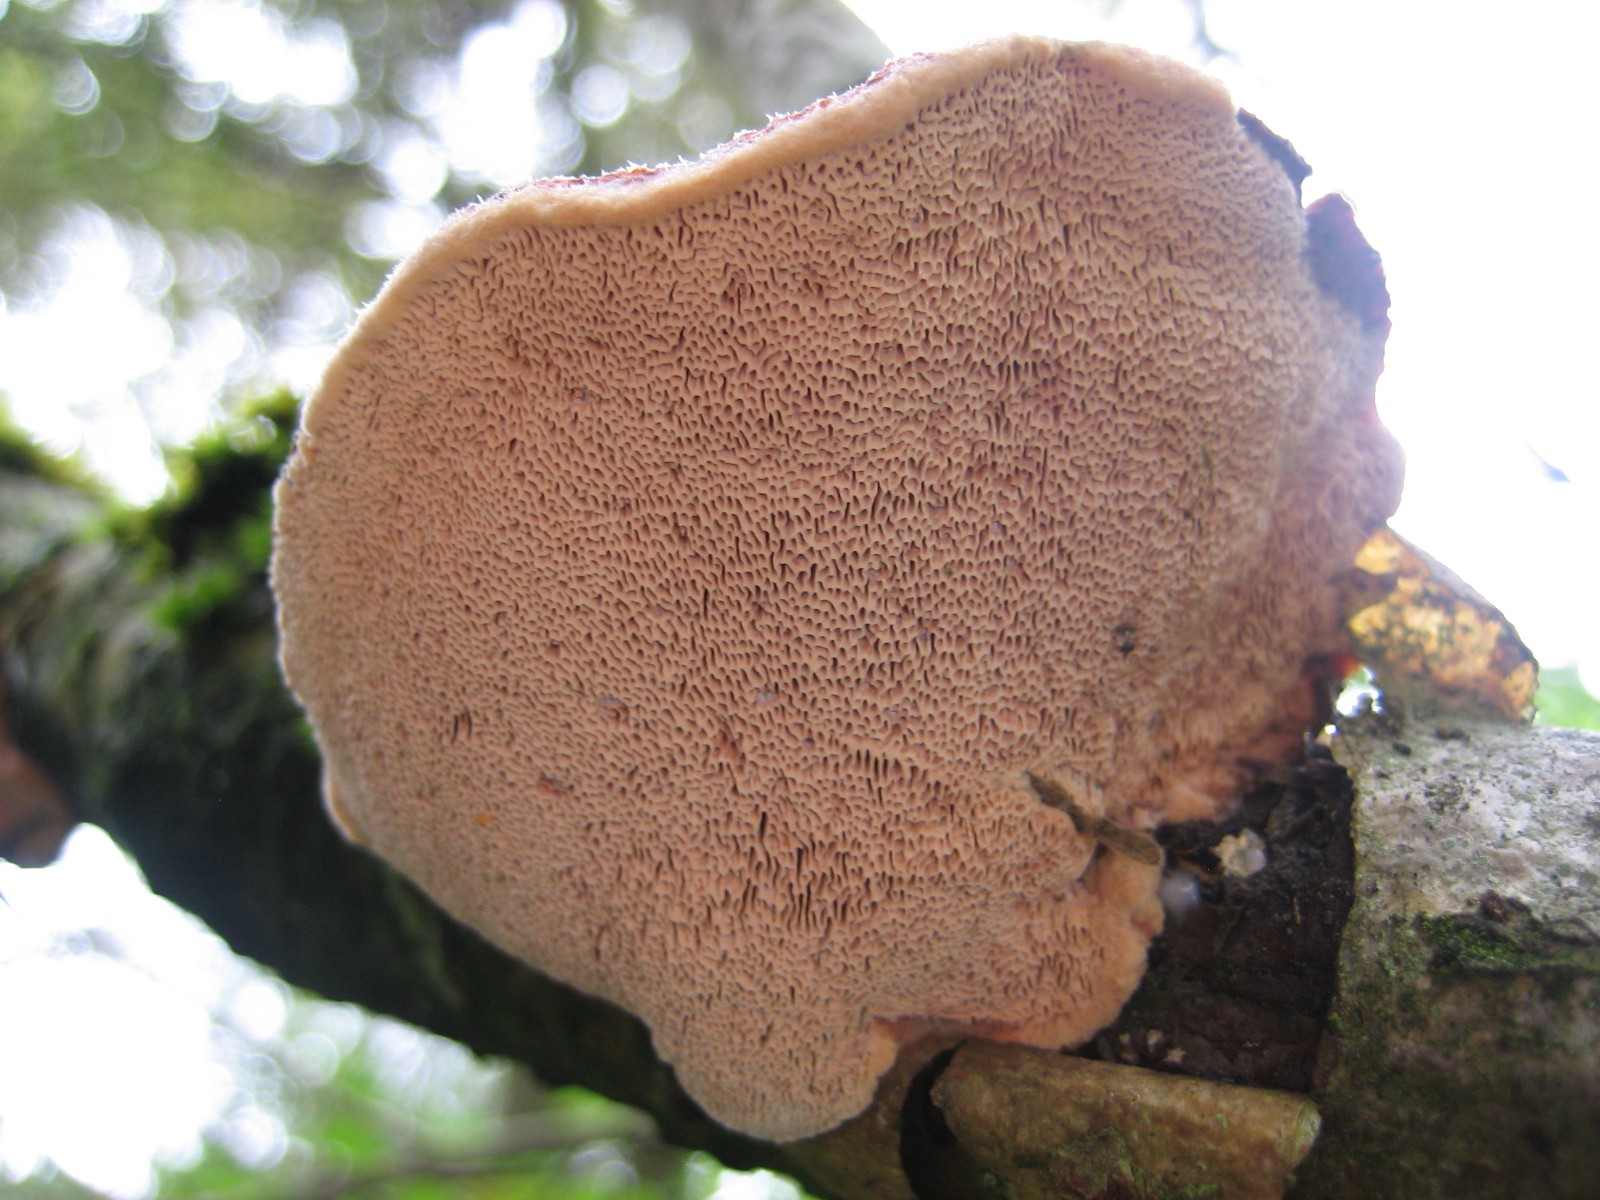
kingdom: Fungi
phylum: Basidiomycota
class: Agaricomycetes
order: Polyporales
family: Phanerochaetaceae
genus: Hapalopilus
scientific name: Hapalopilus rutilans
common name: rødlig okkerporesvamp
